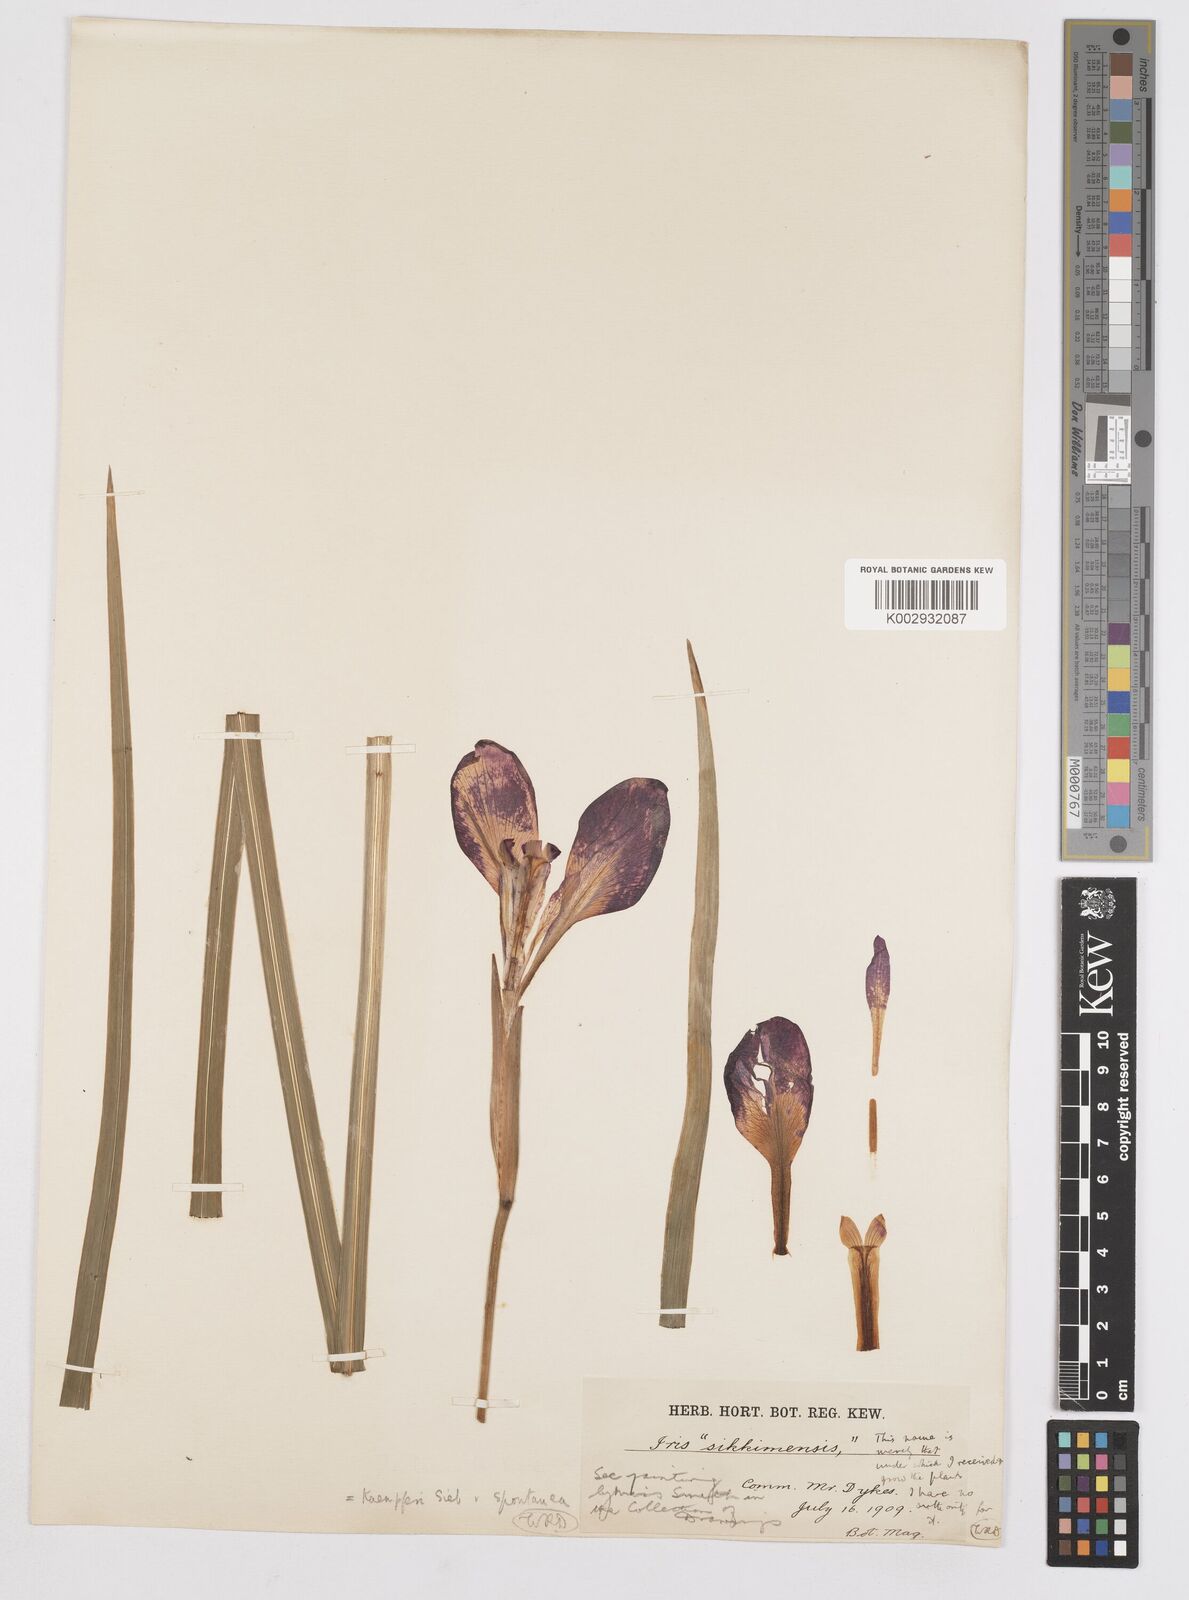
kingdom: Plantae
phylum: Tracheophyta
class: Liliopsida
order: Asparagales
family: Iridaceae
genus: Iris
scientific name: Iris ensata
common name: Beaked iris
